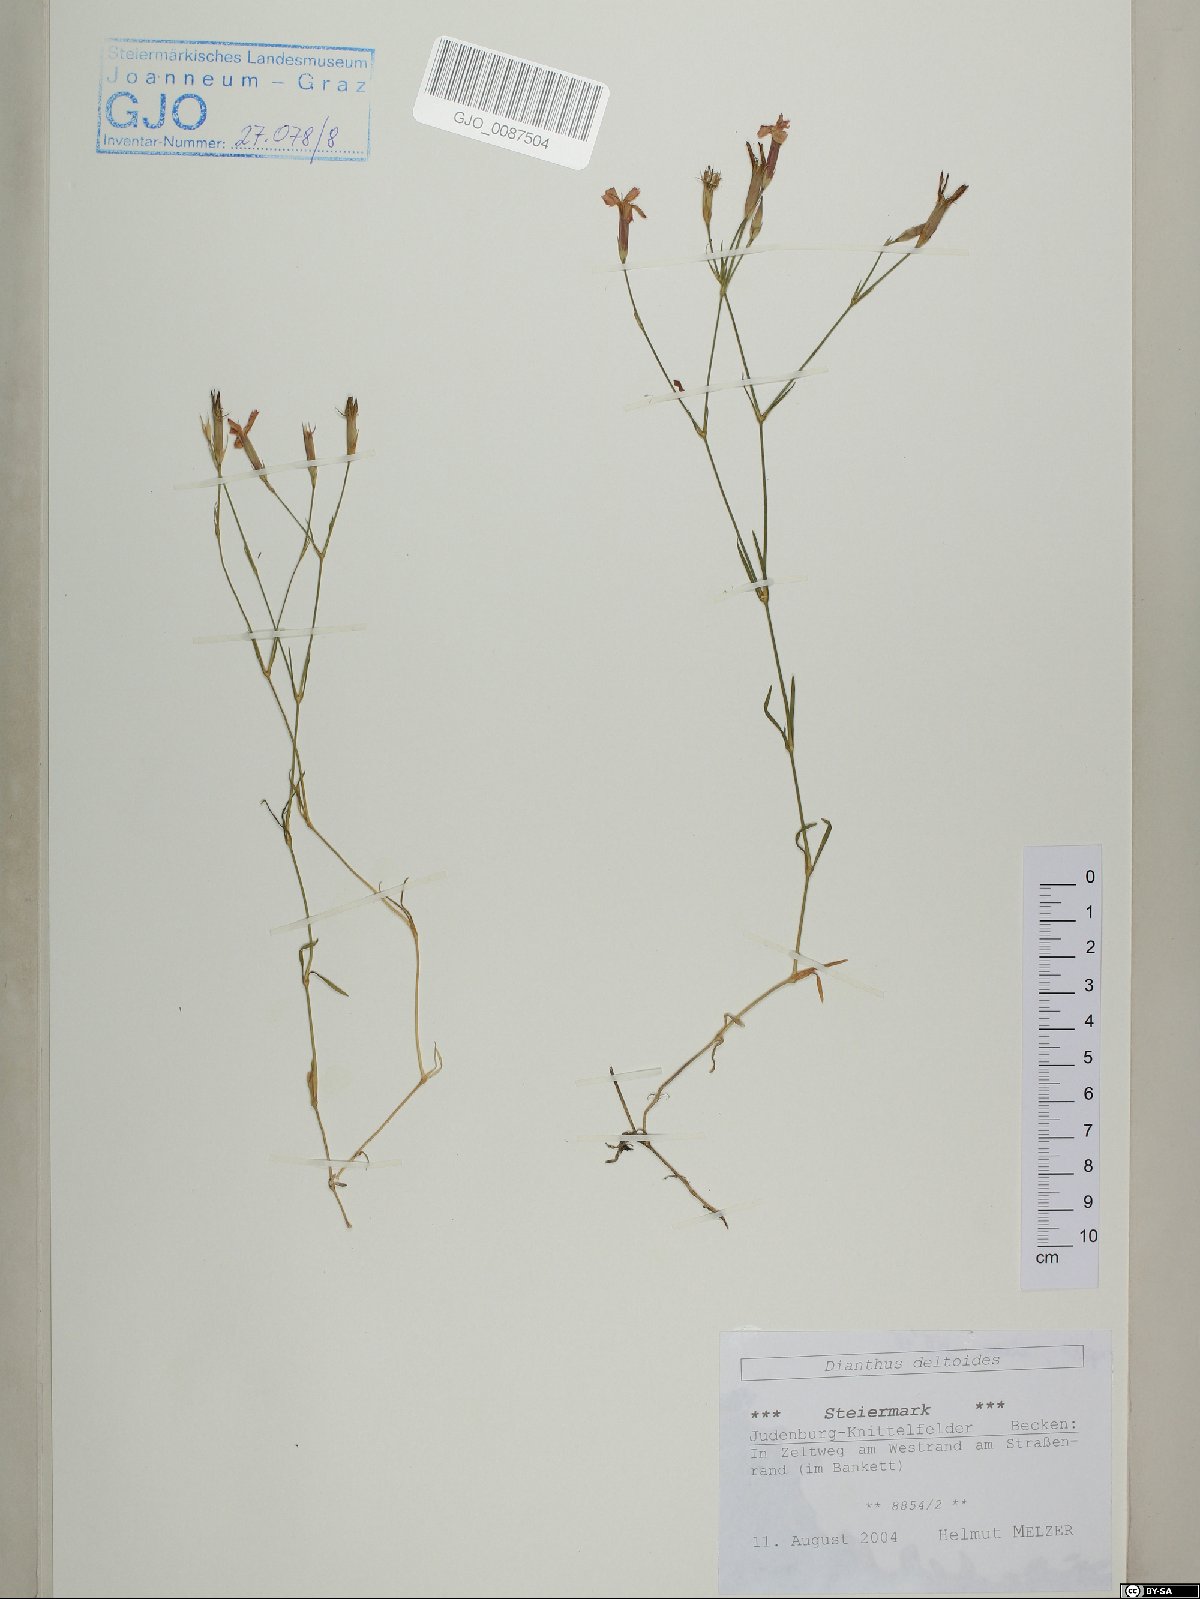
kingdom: Plantae
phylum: Tracheophyta
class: Magnoliopsida
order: Caryophyllales
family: Caryophyllaceae
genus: Dianthus
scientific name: Dianthus deltoides
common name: Maiden pink
